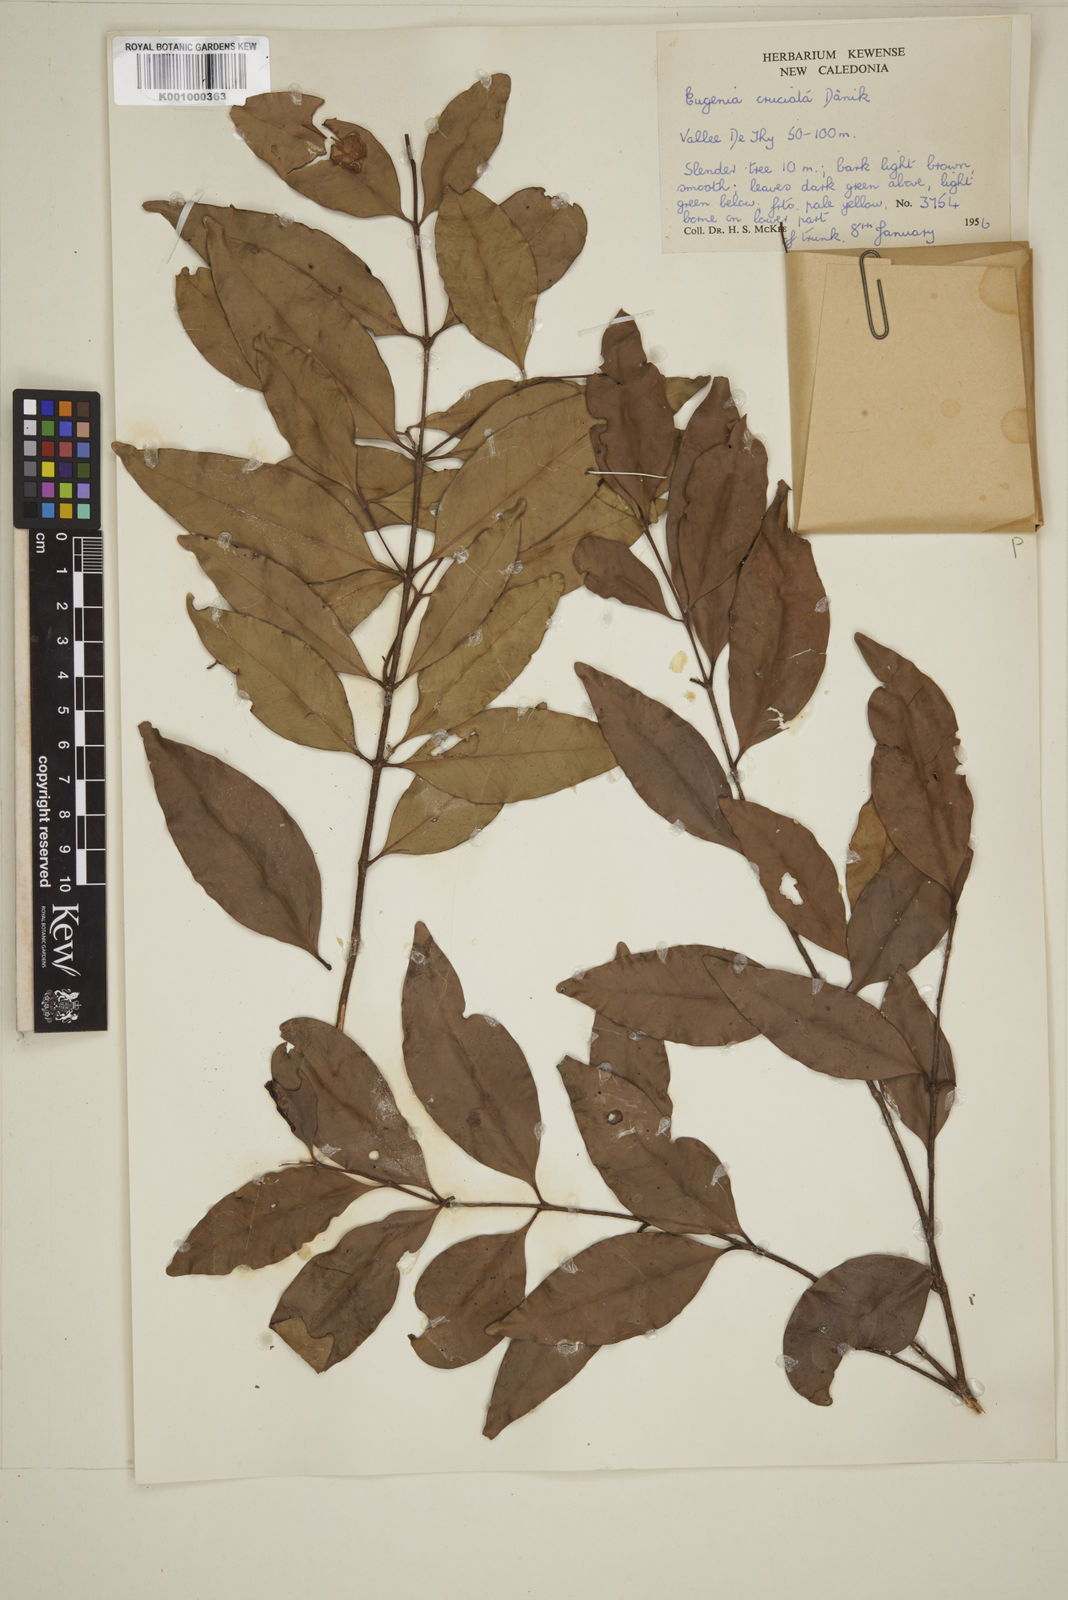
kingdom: Plantae
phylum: Tracheophyta
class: Magnoliopsida
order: Myrtales
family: Myrtaceae
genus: Eugenia
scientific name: Eugenia
